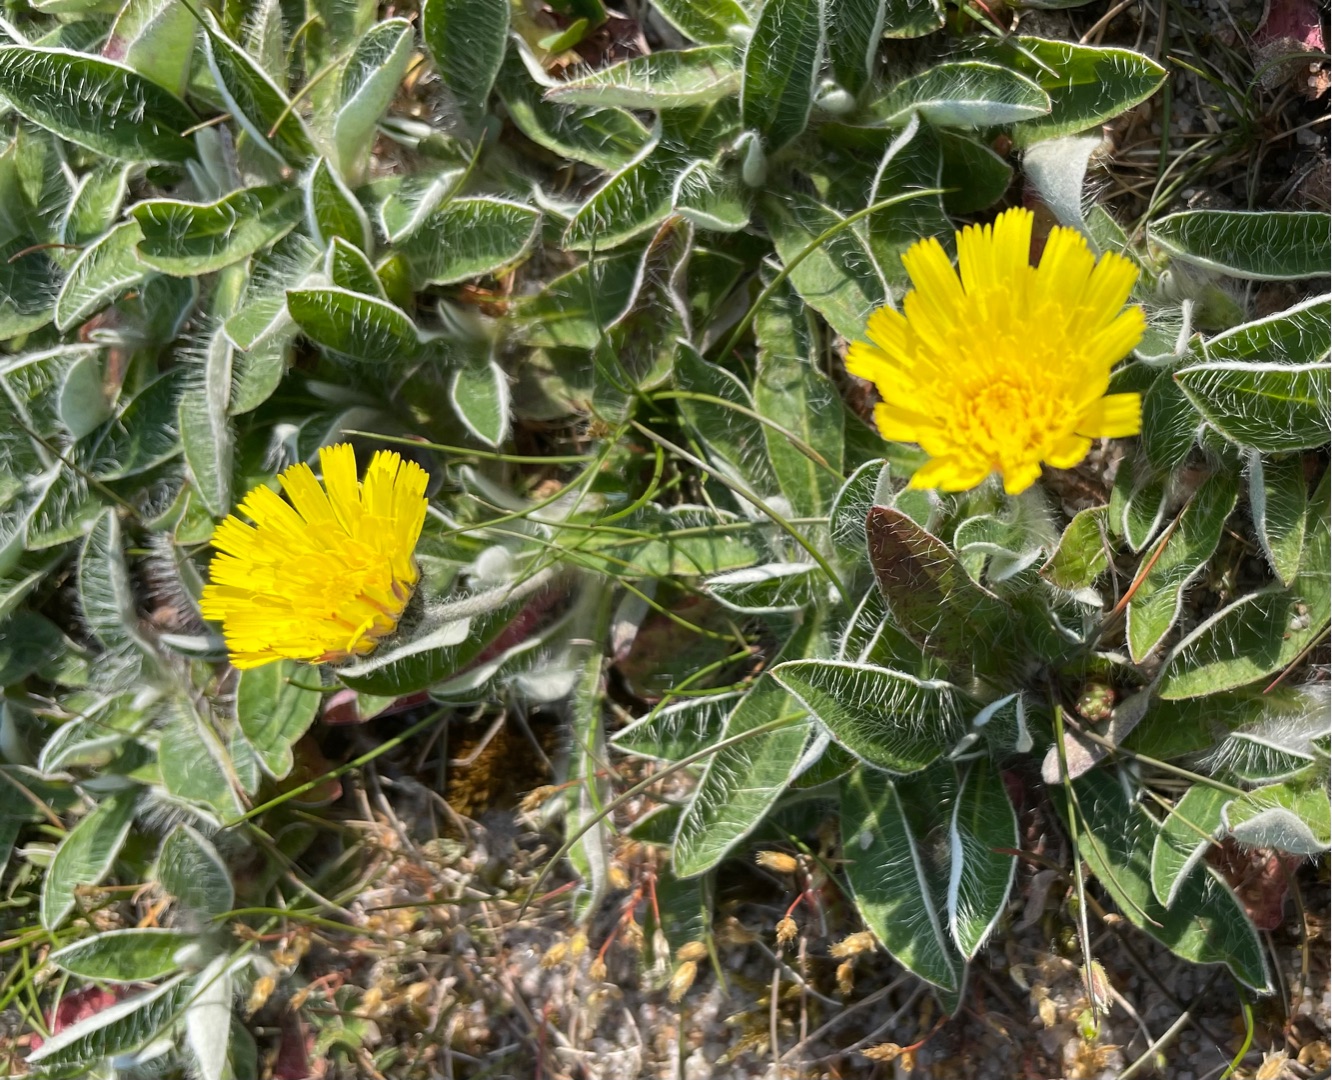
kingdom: Plantae
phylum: Tracheophyta
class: Magnoliopsida
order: Asterales
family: Asteraceae
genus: Pilosella
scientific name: Pilosella officinarum
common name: Håret høgeurt
